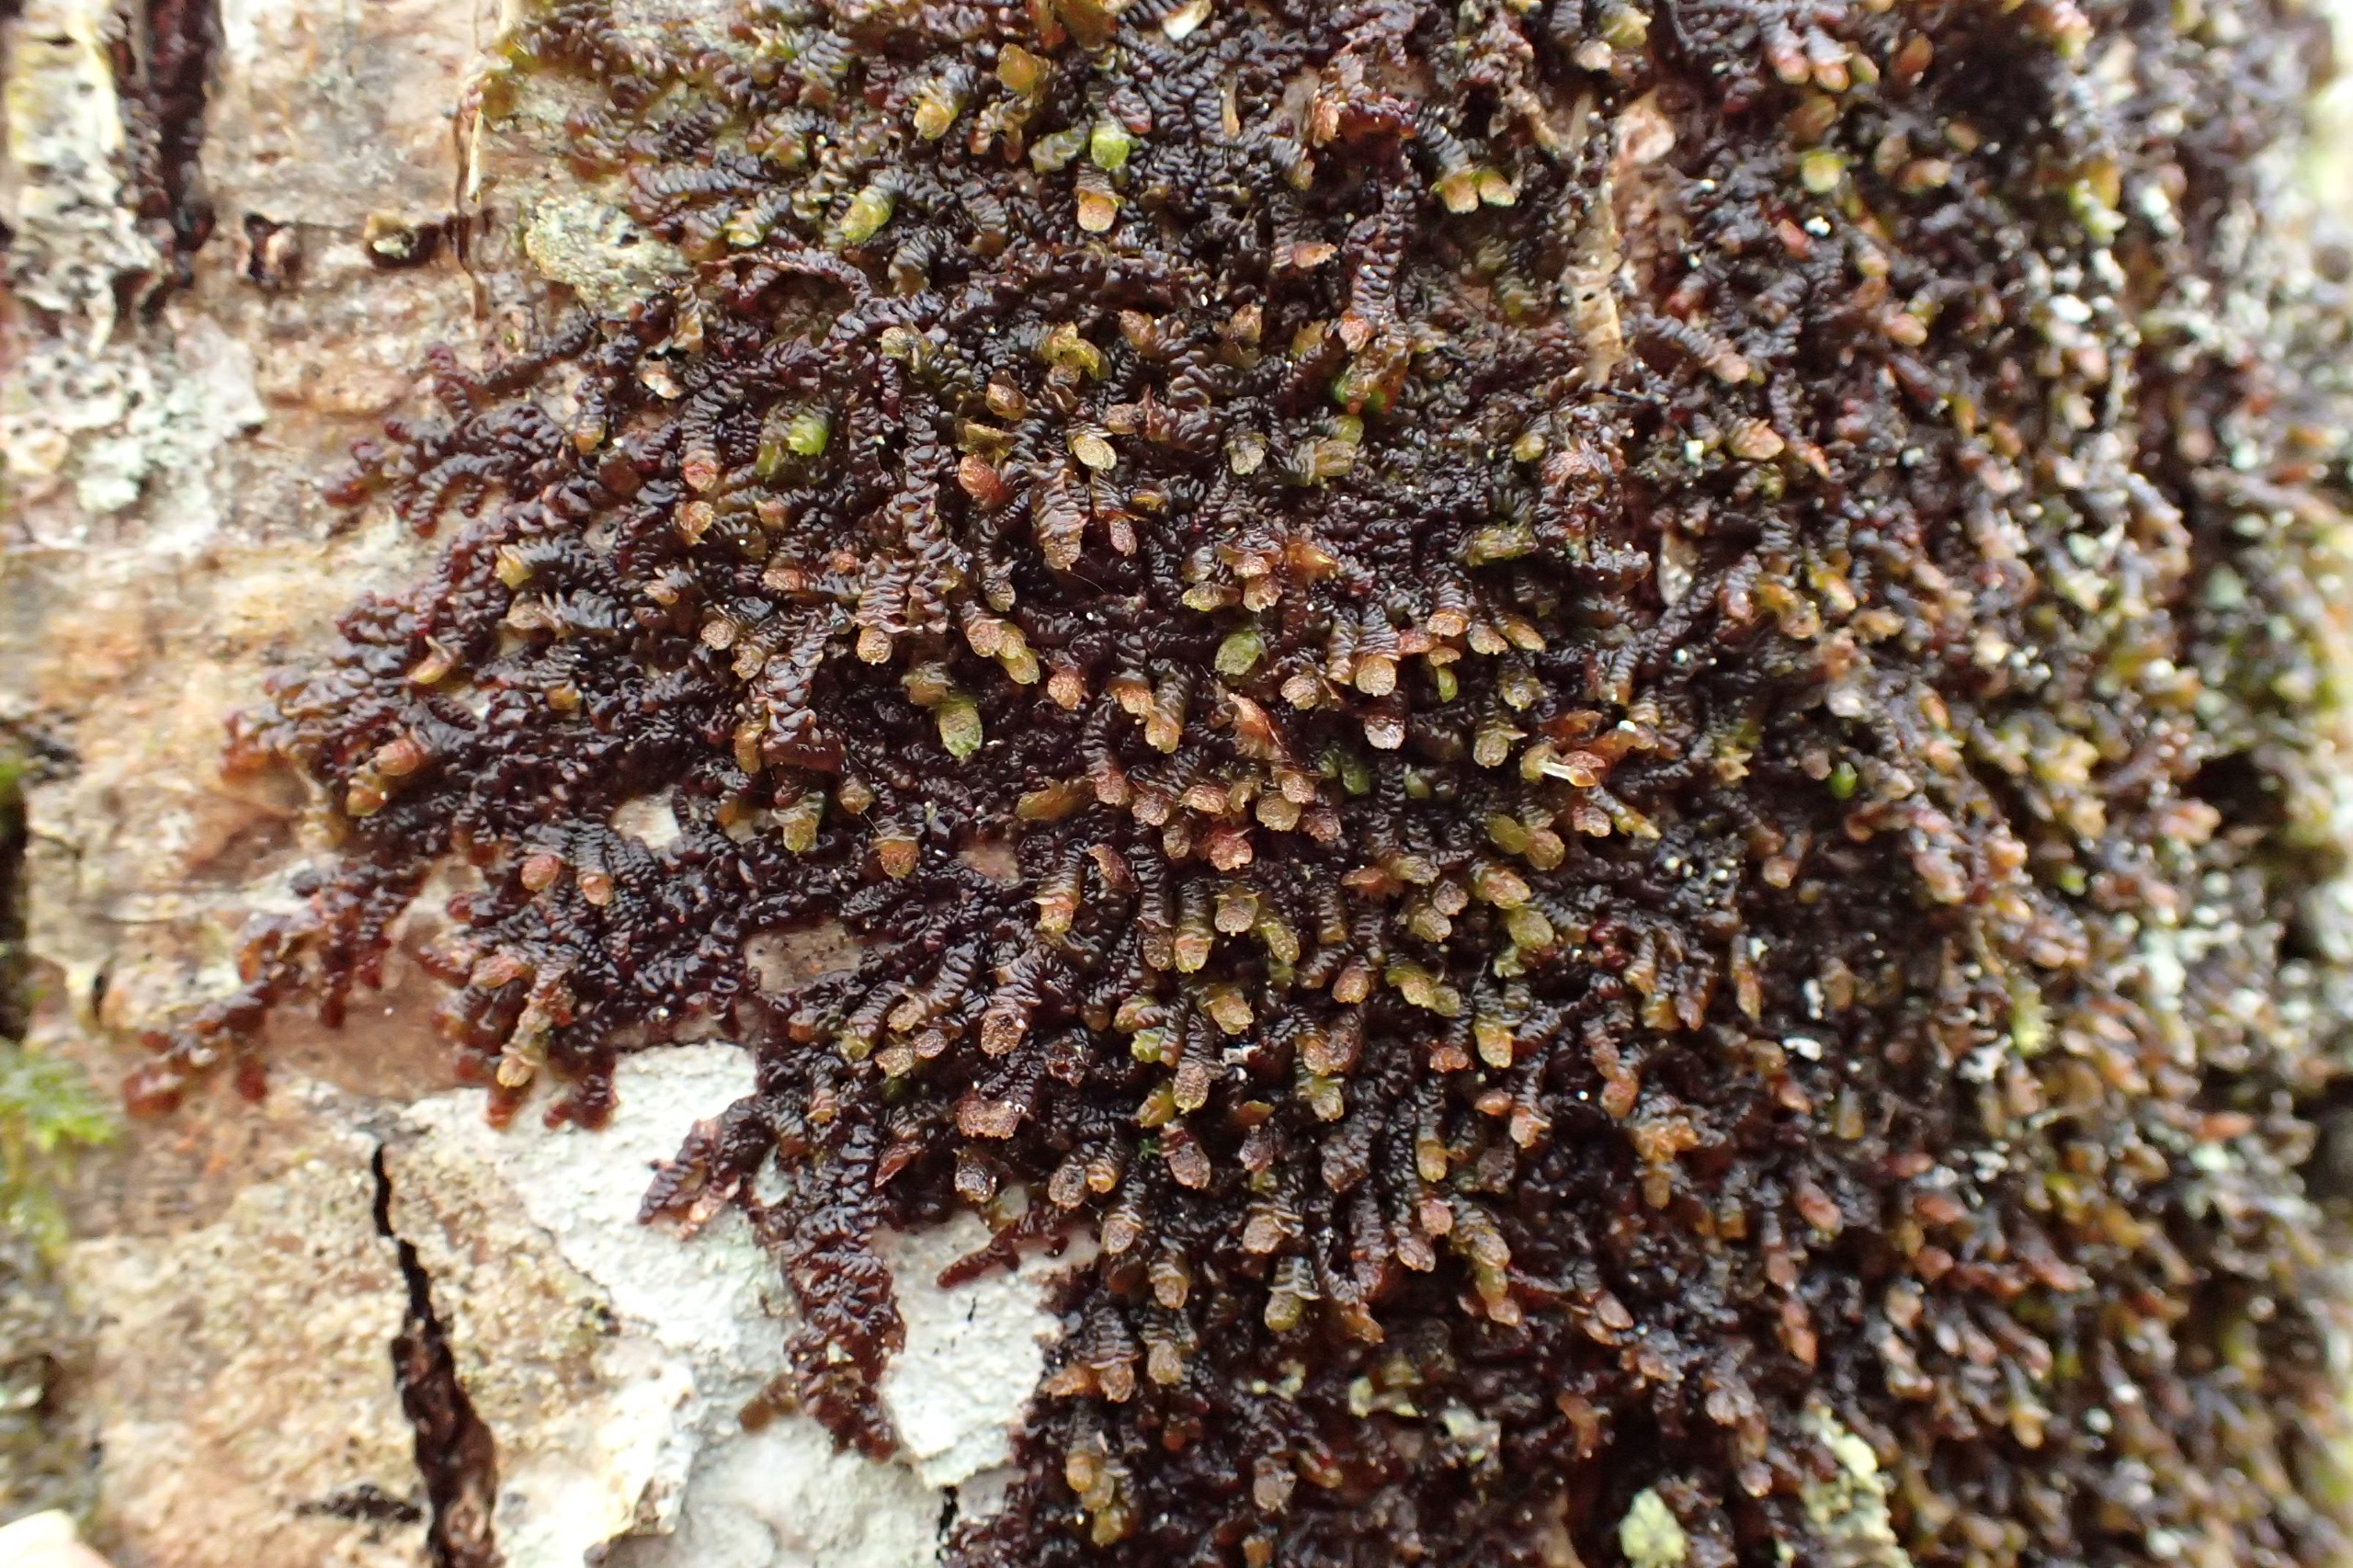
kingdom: Plantae
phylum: Marchantiophyta
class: Jungermanniopsida
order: Porellales
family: Frullaniaceae
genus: Frullania
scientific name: Frullania dilatata
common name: Mat bronzemos
